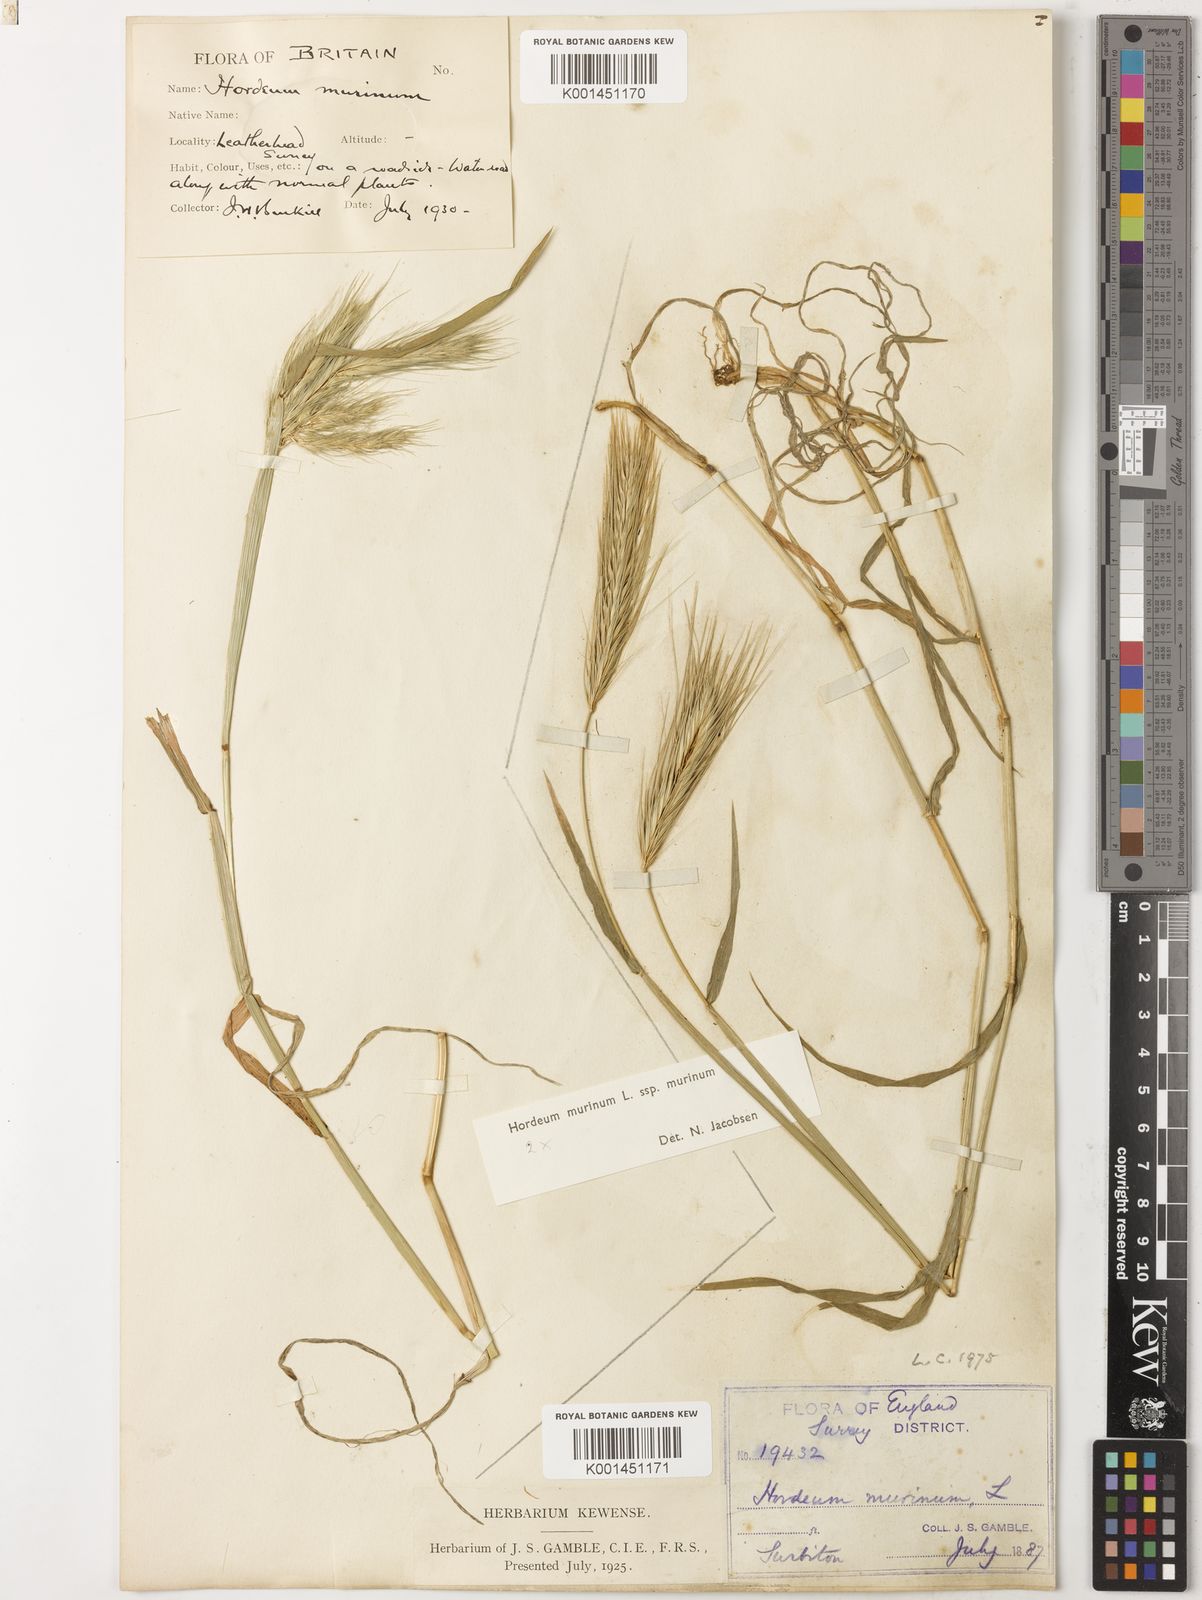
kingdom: Plantae
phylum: Tracheophyta
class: Liliopsida
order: Poales
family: Poaceae
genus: Hordeum
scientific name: Hordeum murinum
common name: Wall barley
